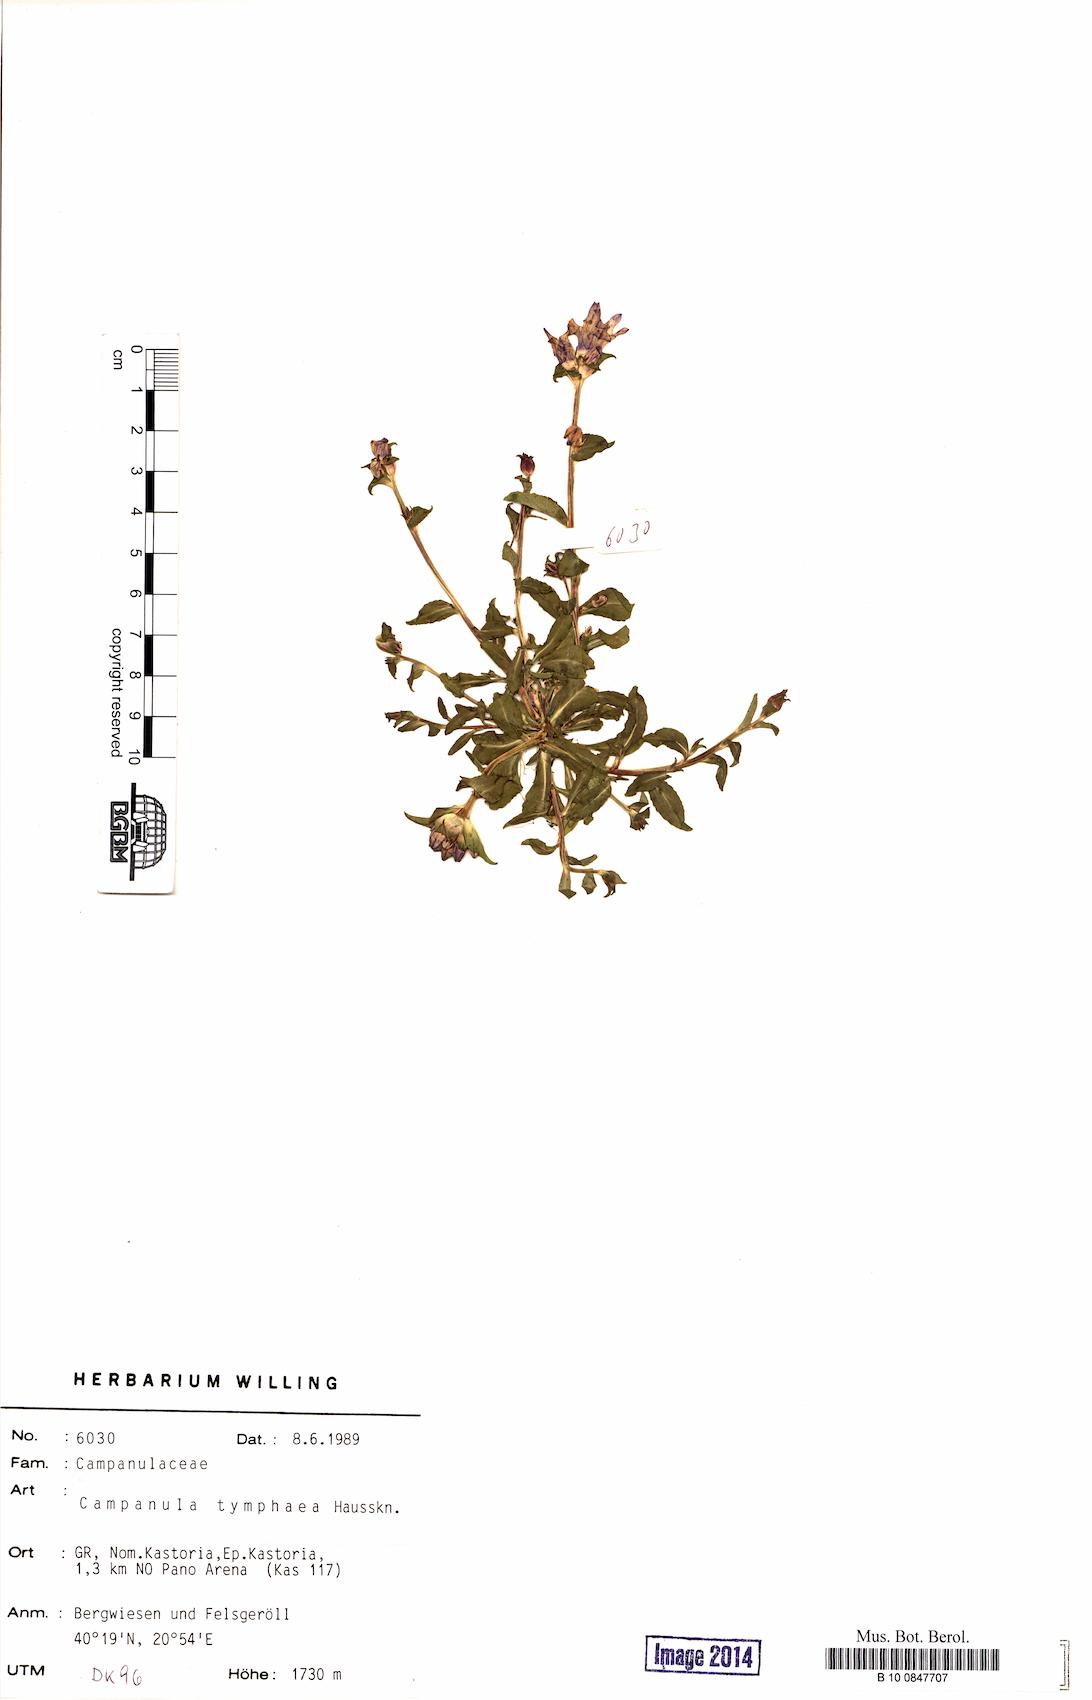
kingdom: Plantae
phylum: Tracheophyta
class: Magnoliopsida
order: Asterales
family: Campanulaceae
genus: Campanula
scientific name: Campanula tymphaea
